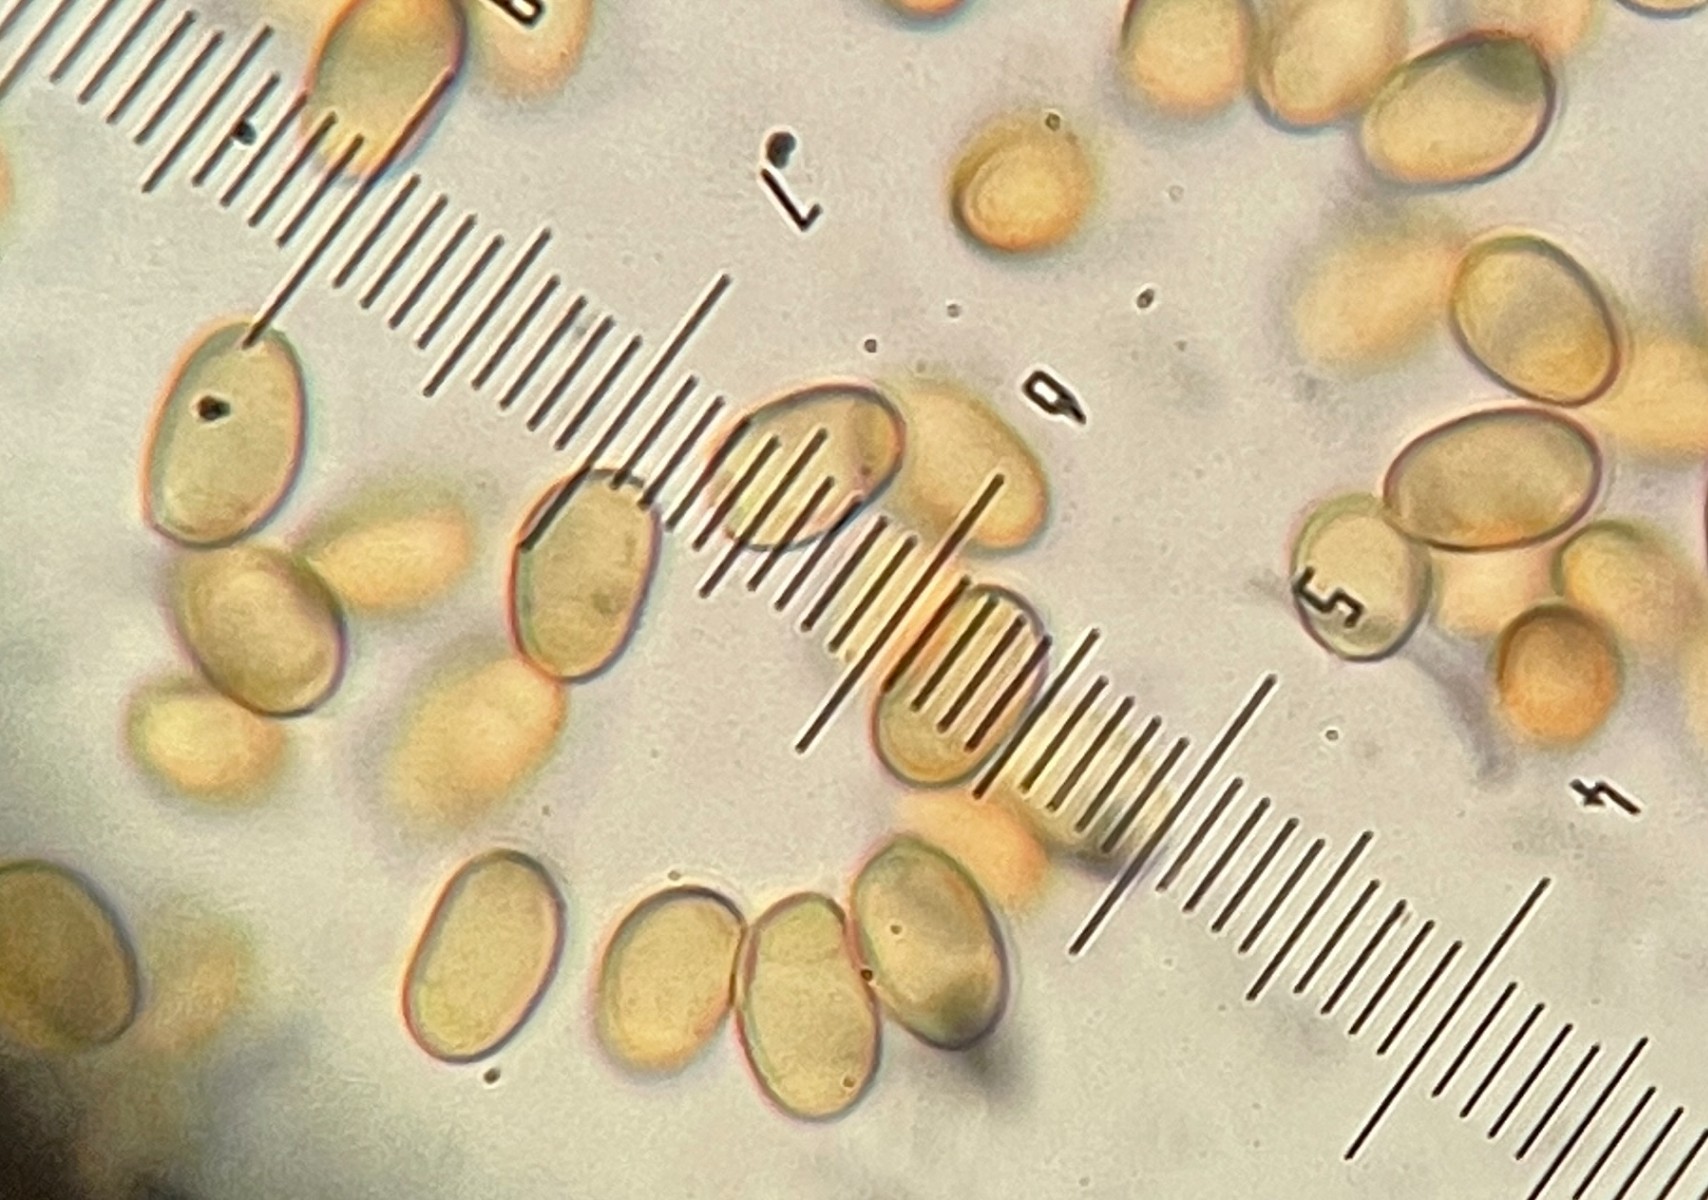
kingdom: Fungi
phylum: Basidiomycota
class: Agaricomycetes
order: Boletales
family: Paxillaceae
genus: Paxillus
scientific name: Paxillus rubicundulus
